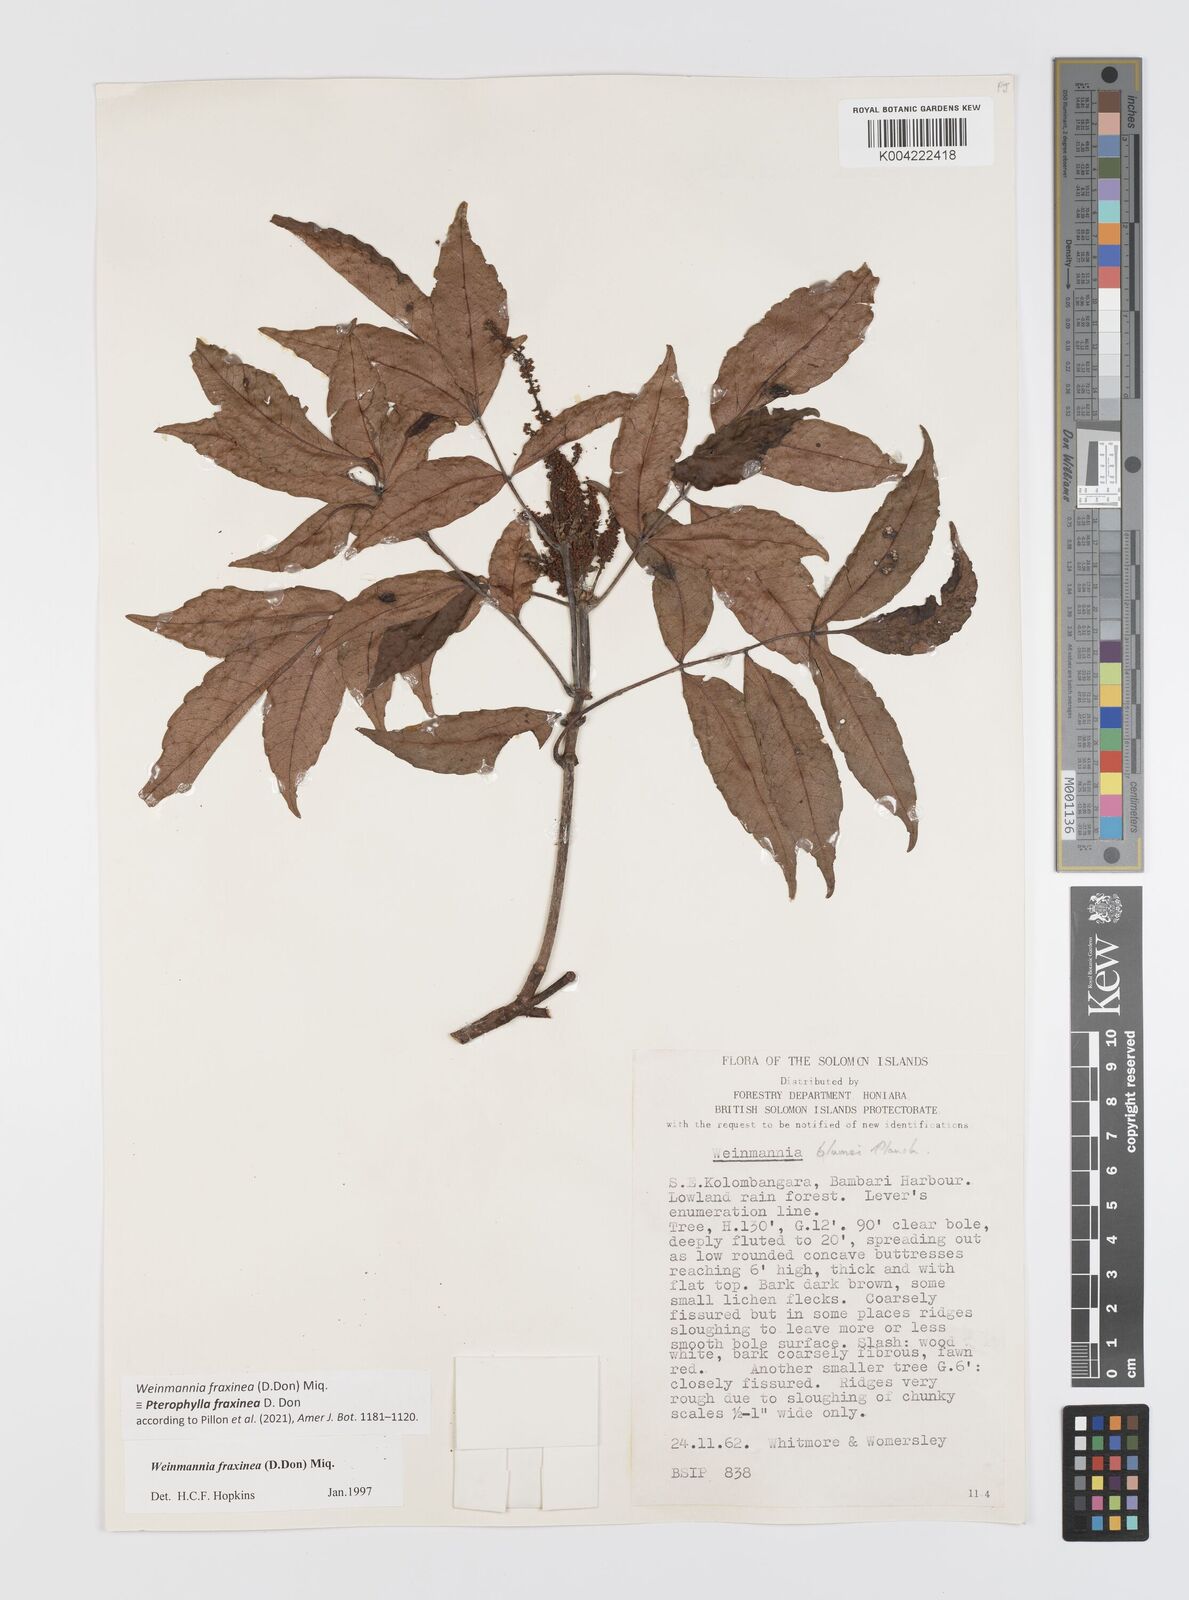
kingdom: Plantae
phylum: Tracheophyta
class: Magnoliopsida
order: Oxalidales
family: Cunoniaceae
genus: Pterophylla
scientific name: Pterophylla fraxinea
